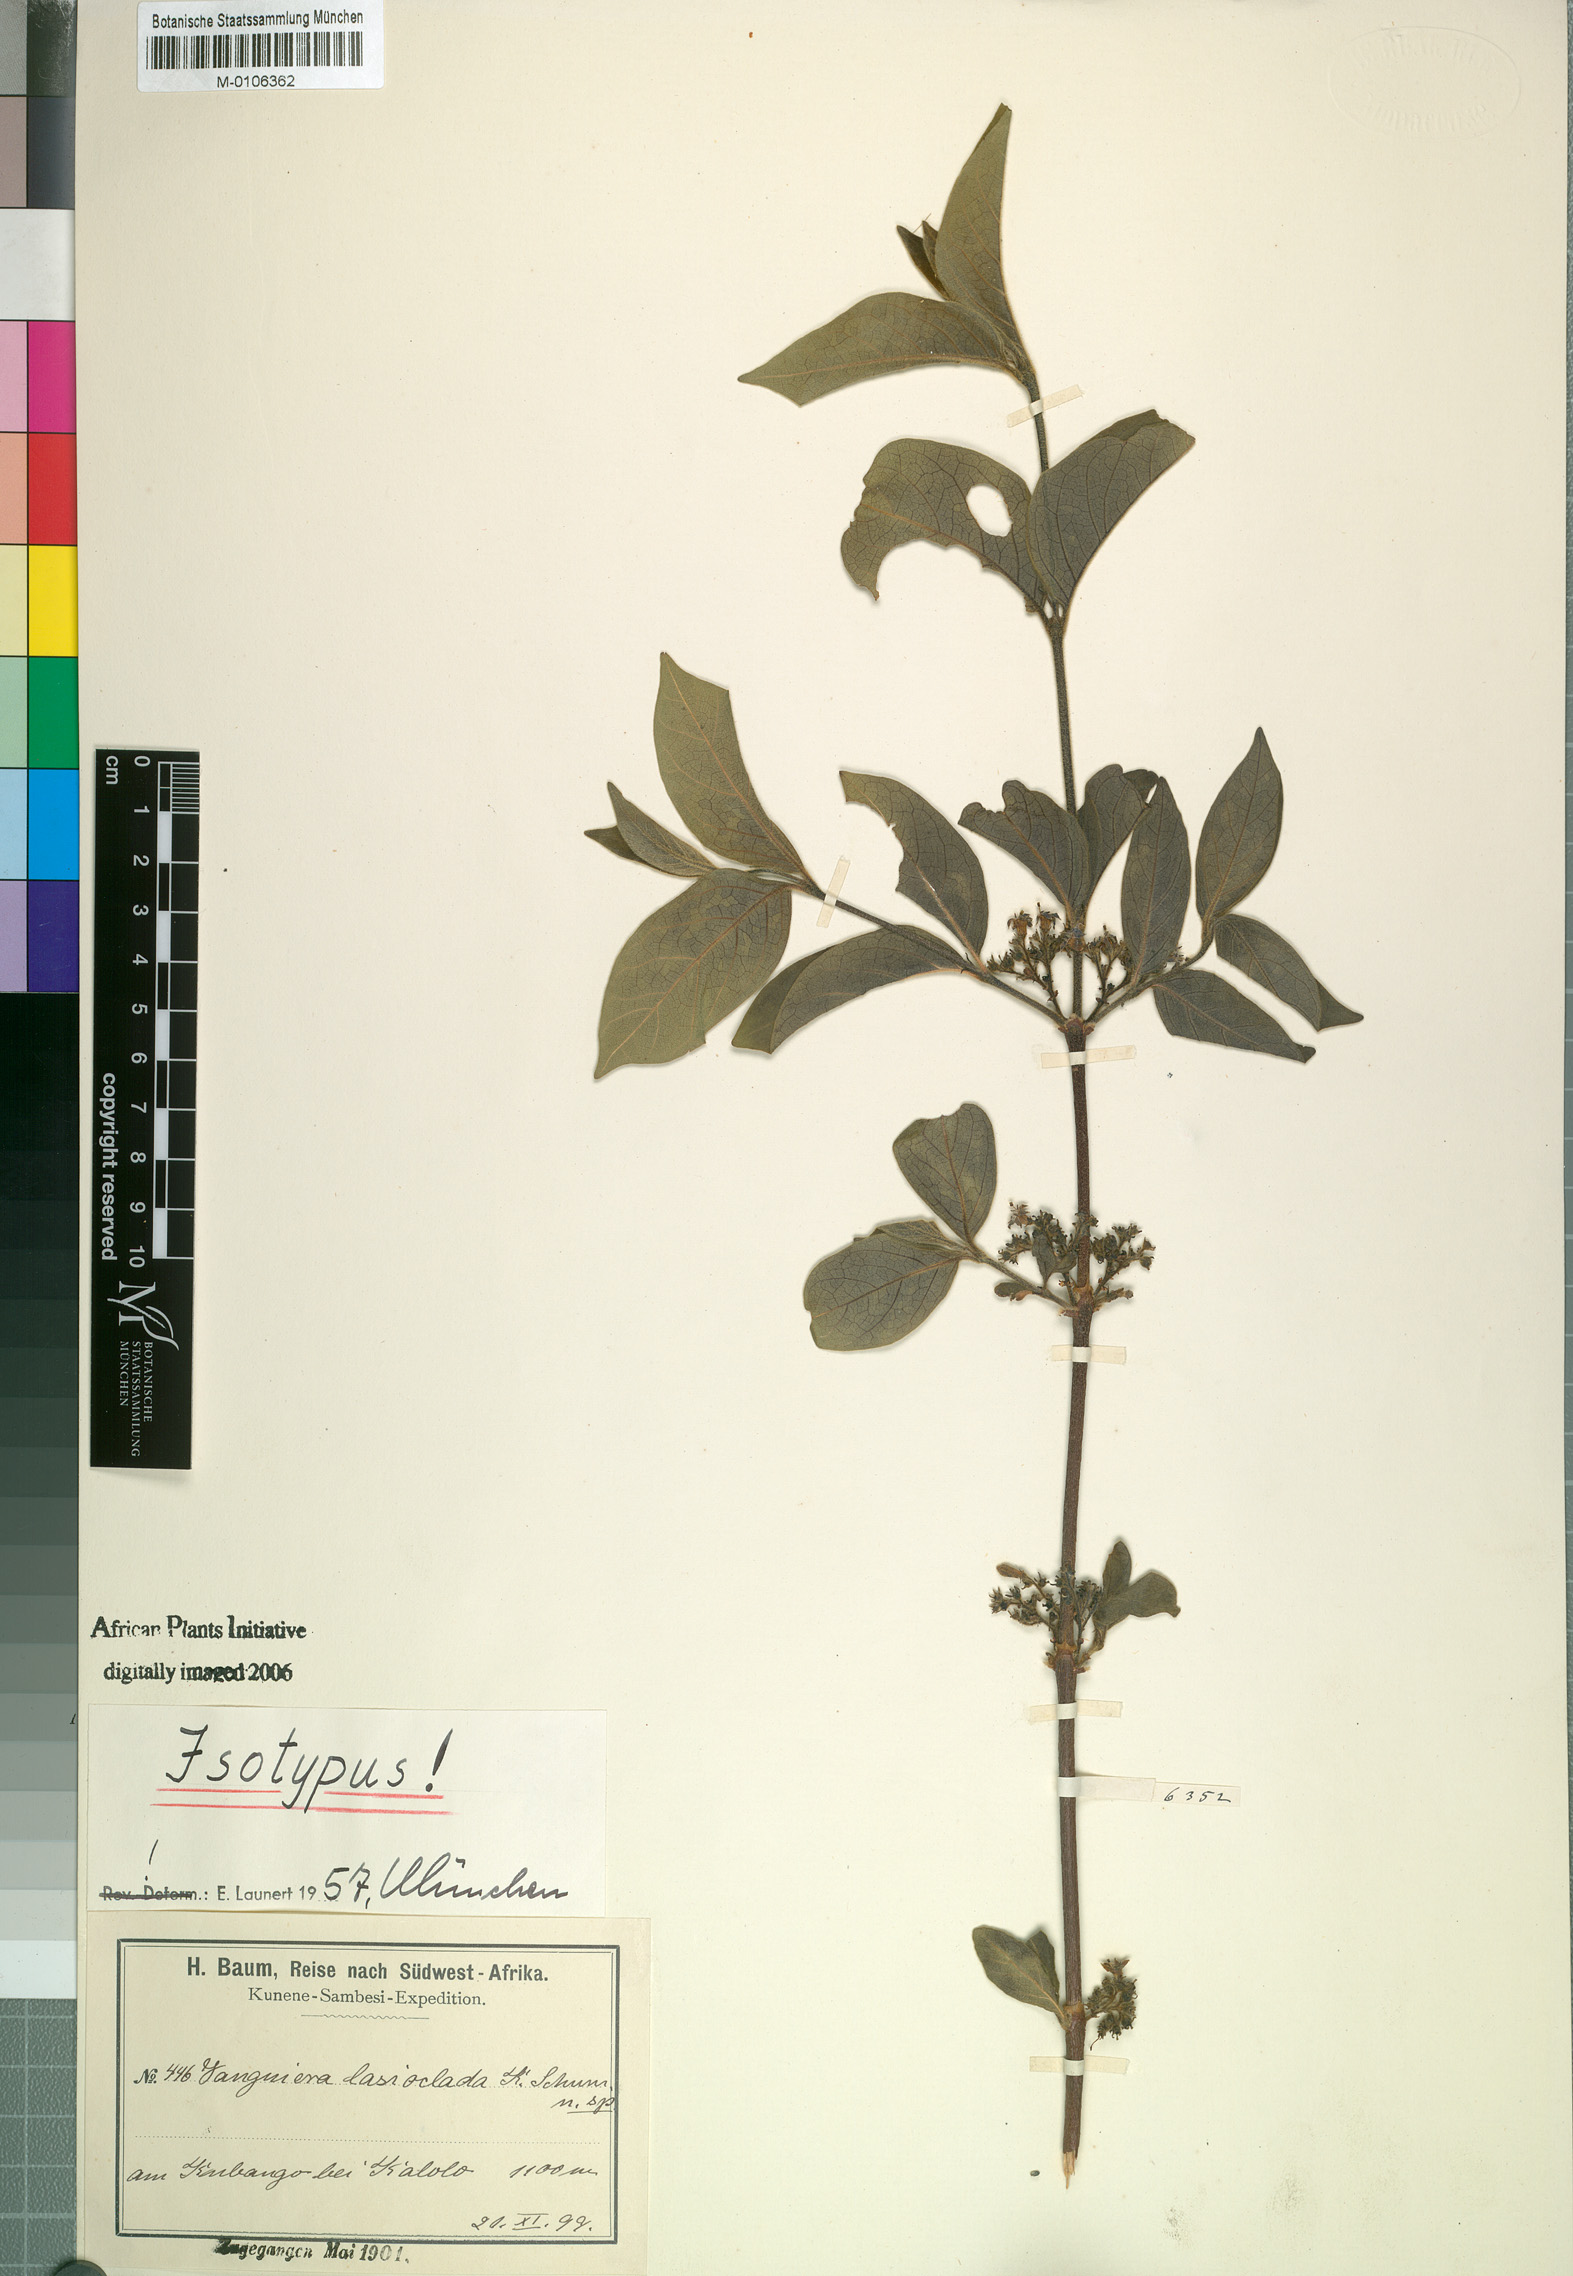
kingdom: Plantae
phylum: Tracheophyta
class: Magnoliopsida
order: Gentianales
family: Rubiaceae
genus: Vangueria
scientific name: Vangueria proschii
